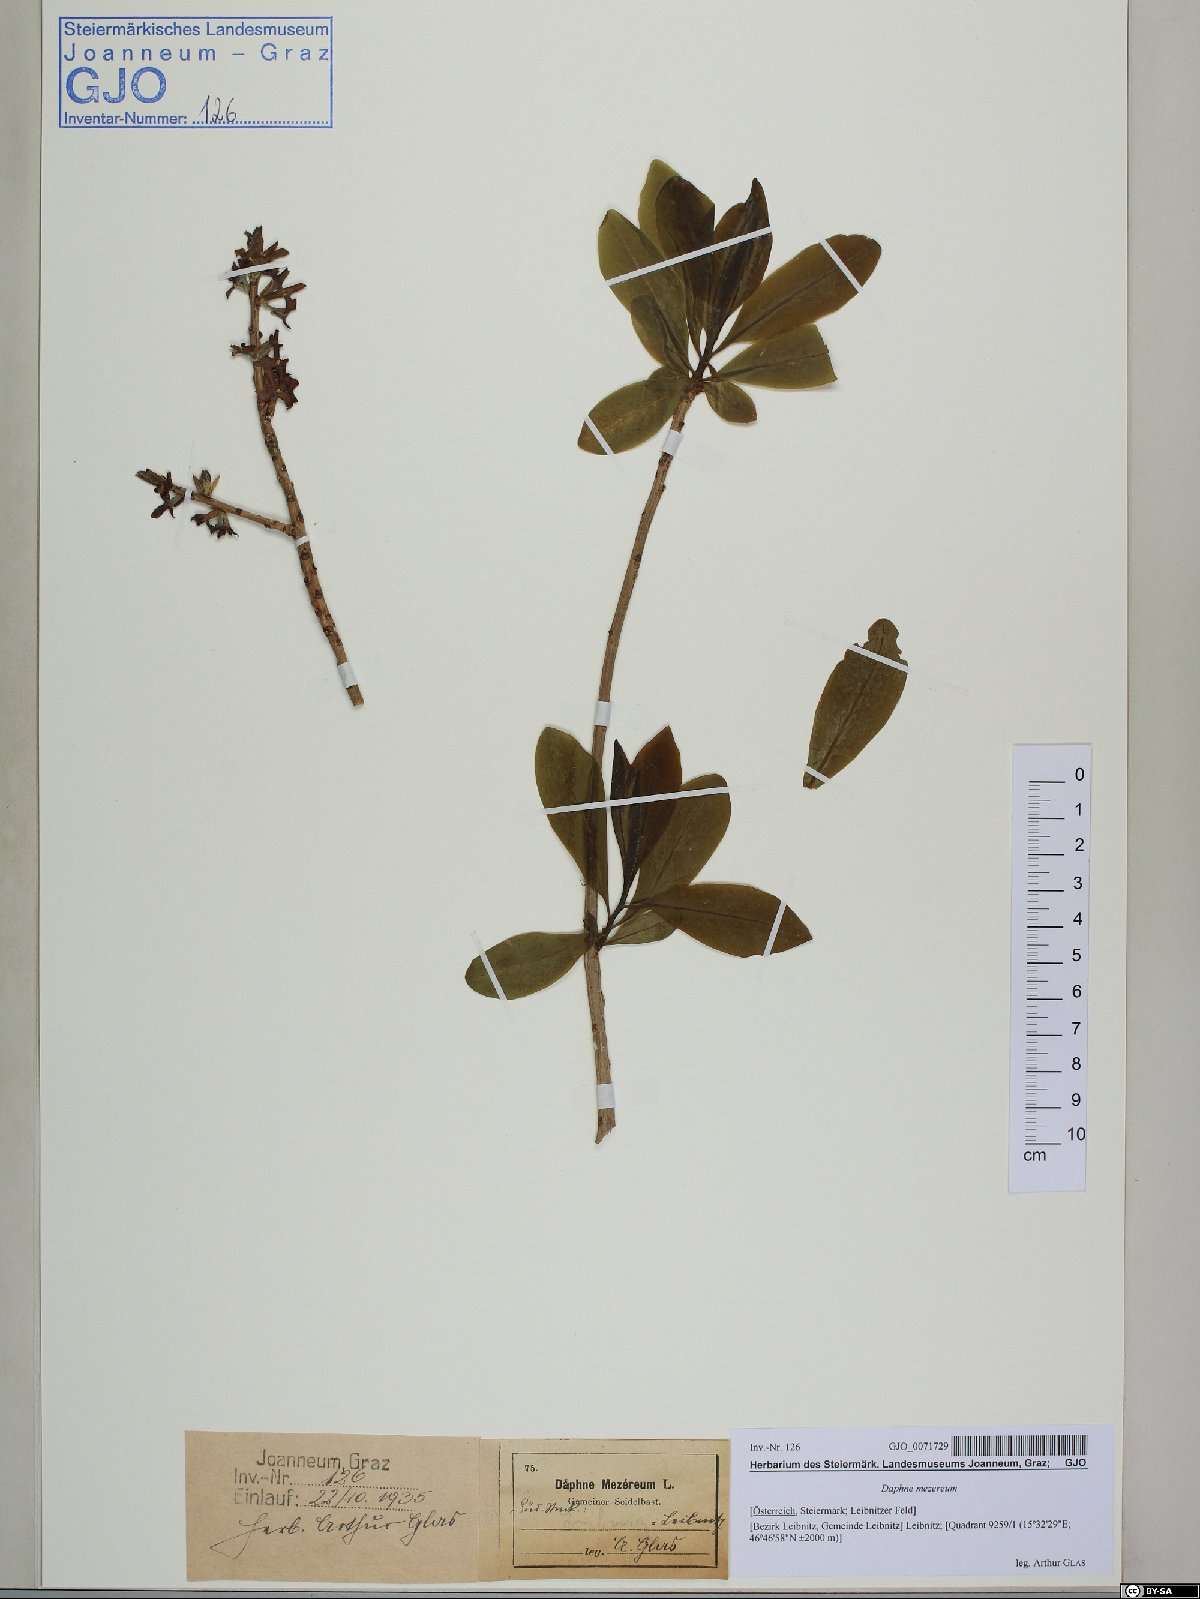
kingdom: Plantae
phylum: Tracheophyta
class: Magnoliopsida
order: Malvales
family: Thymelaeaceae
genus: Daphne
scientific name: Daphne mezereum
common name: Mezereon
